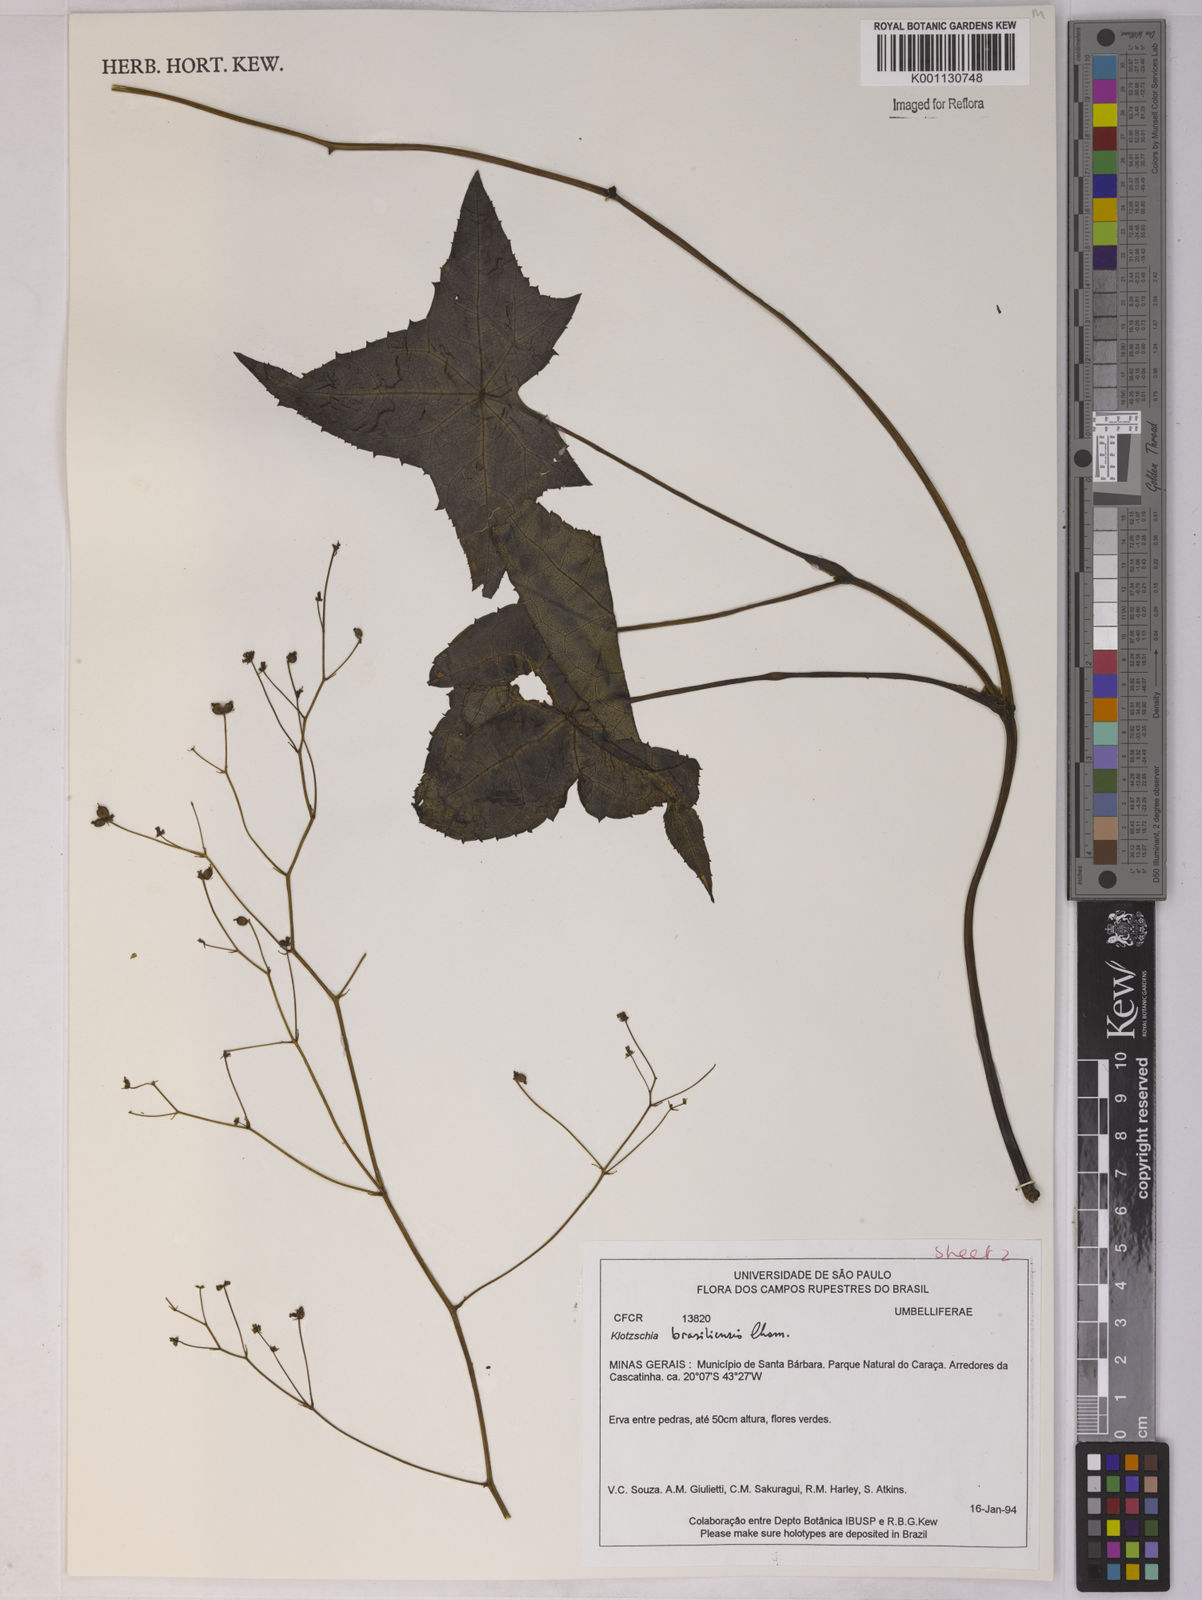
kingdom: Plantae
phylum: Tracheophyta
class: Magnoliopsida
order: Apiales
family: Apiaceae
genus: Klotzschia
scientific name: Klotzschia brasiliensis
